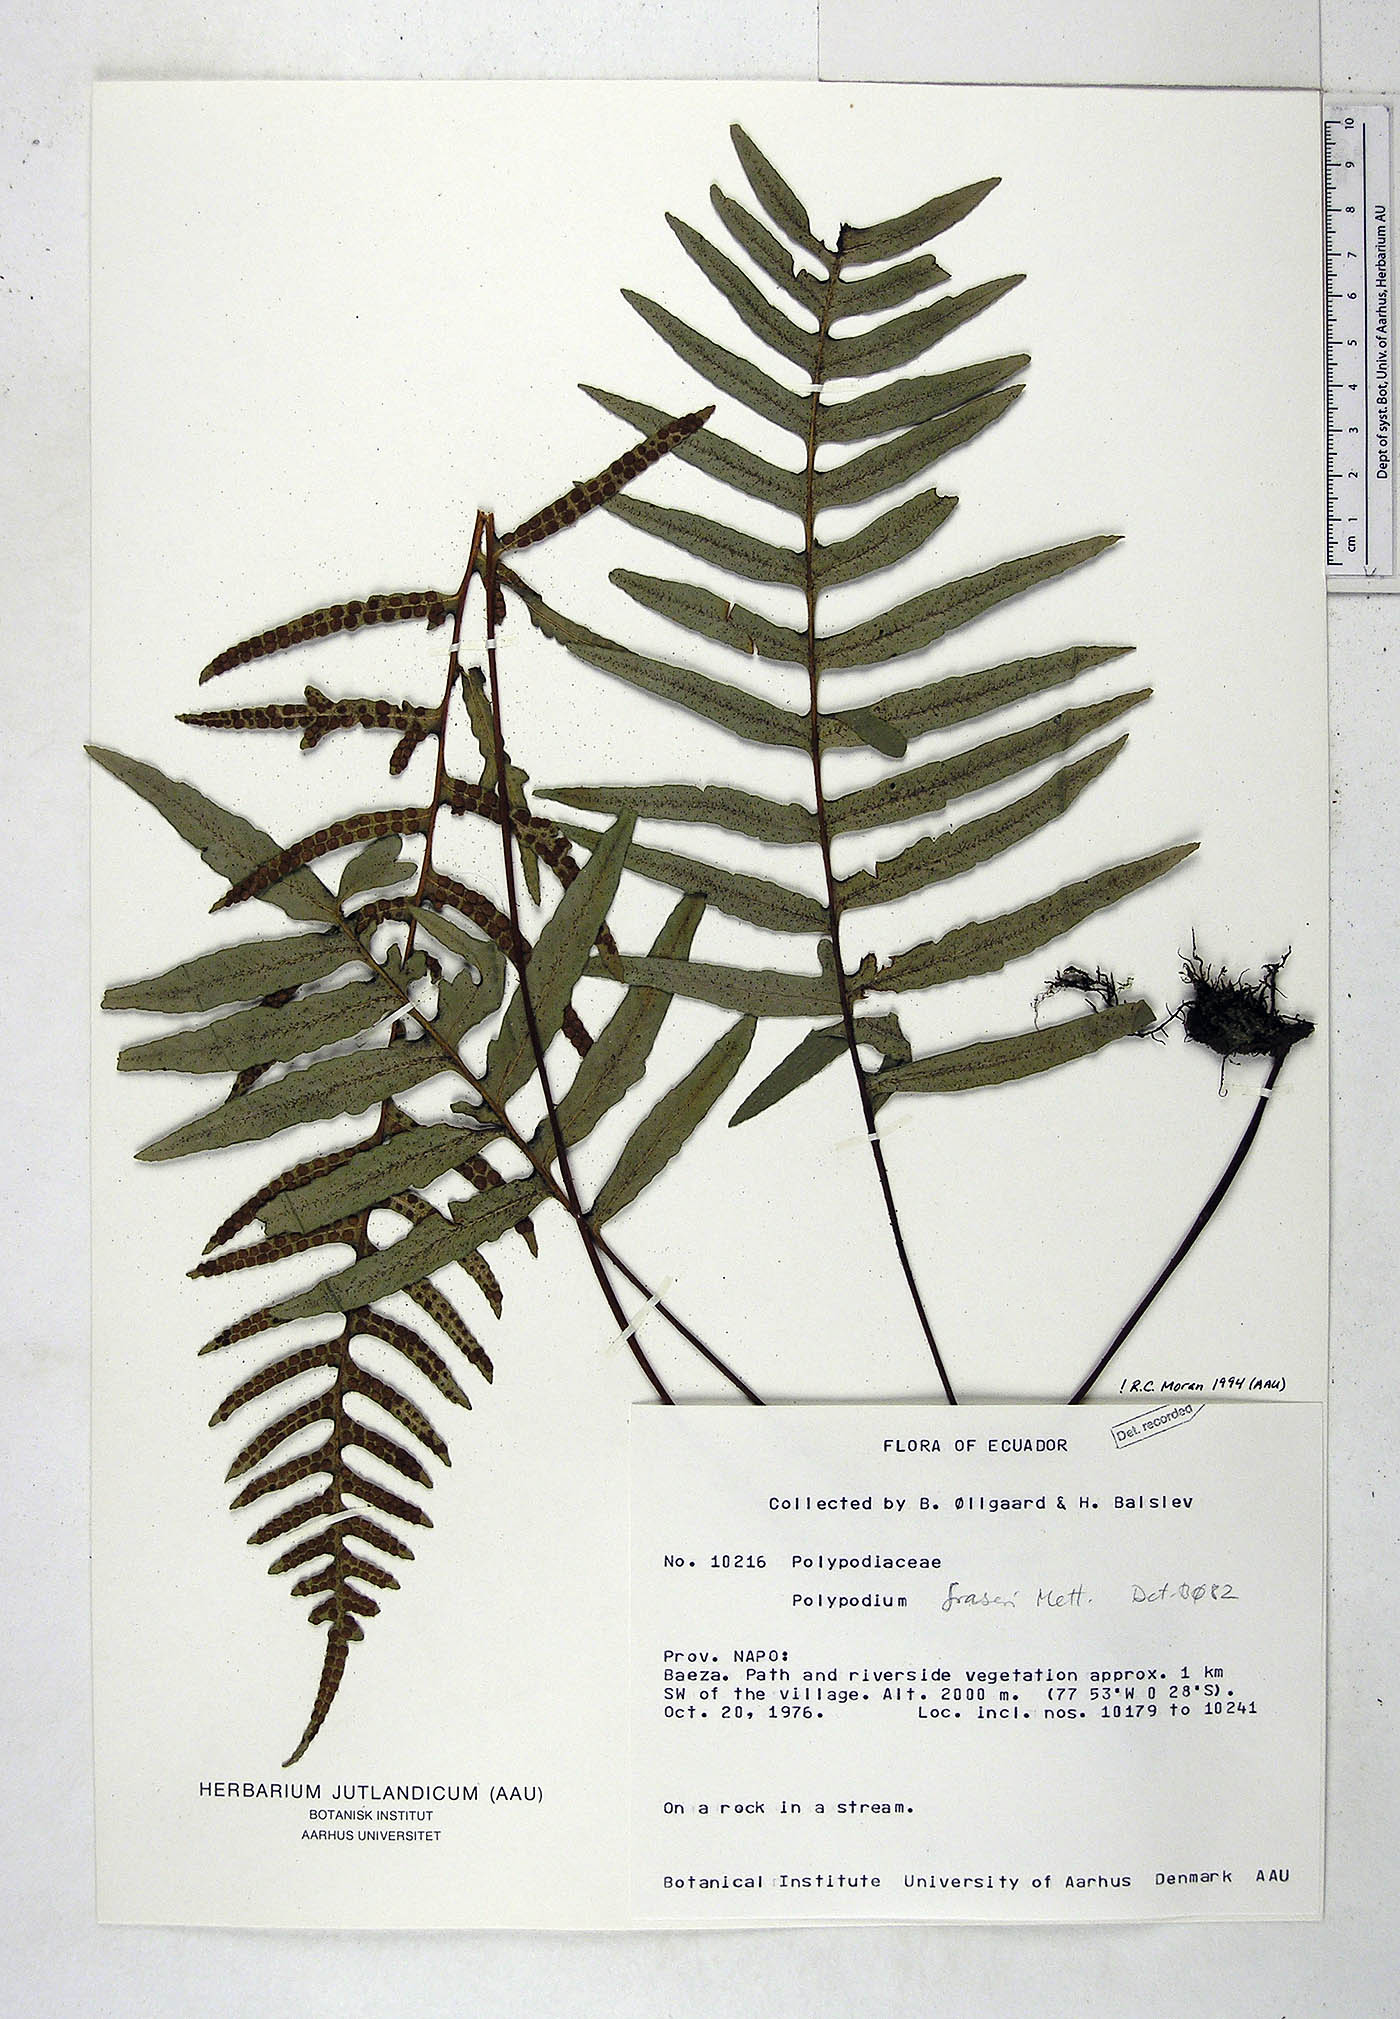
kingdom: Plantae
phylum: Tracheophyta
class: Polypodiopsida
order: Polypodiales
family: Polypodiaceae
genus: Pleopeltis
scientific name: Pleopeltis fraseri
